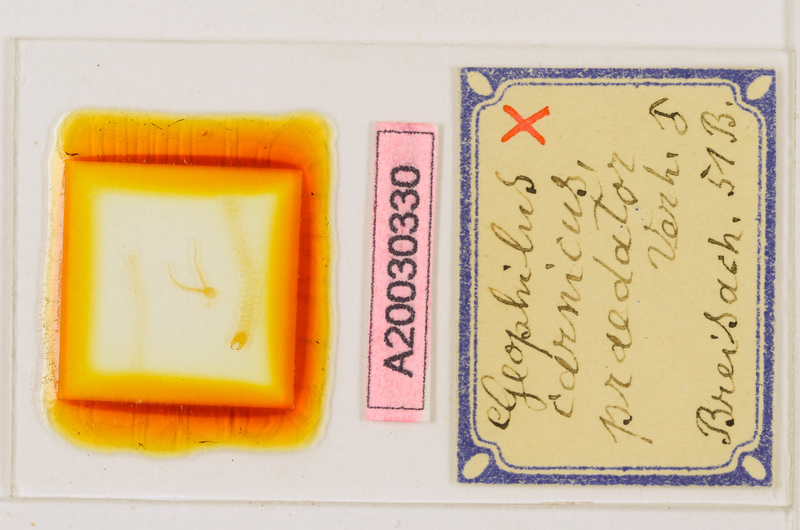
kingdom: Animalia
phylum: Arthropoda
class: Chilopoda
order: Geophilomorpha
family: Geophilidae
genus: Geophilus
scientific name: Geophilus flavus
